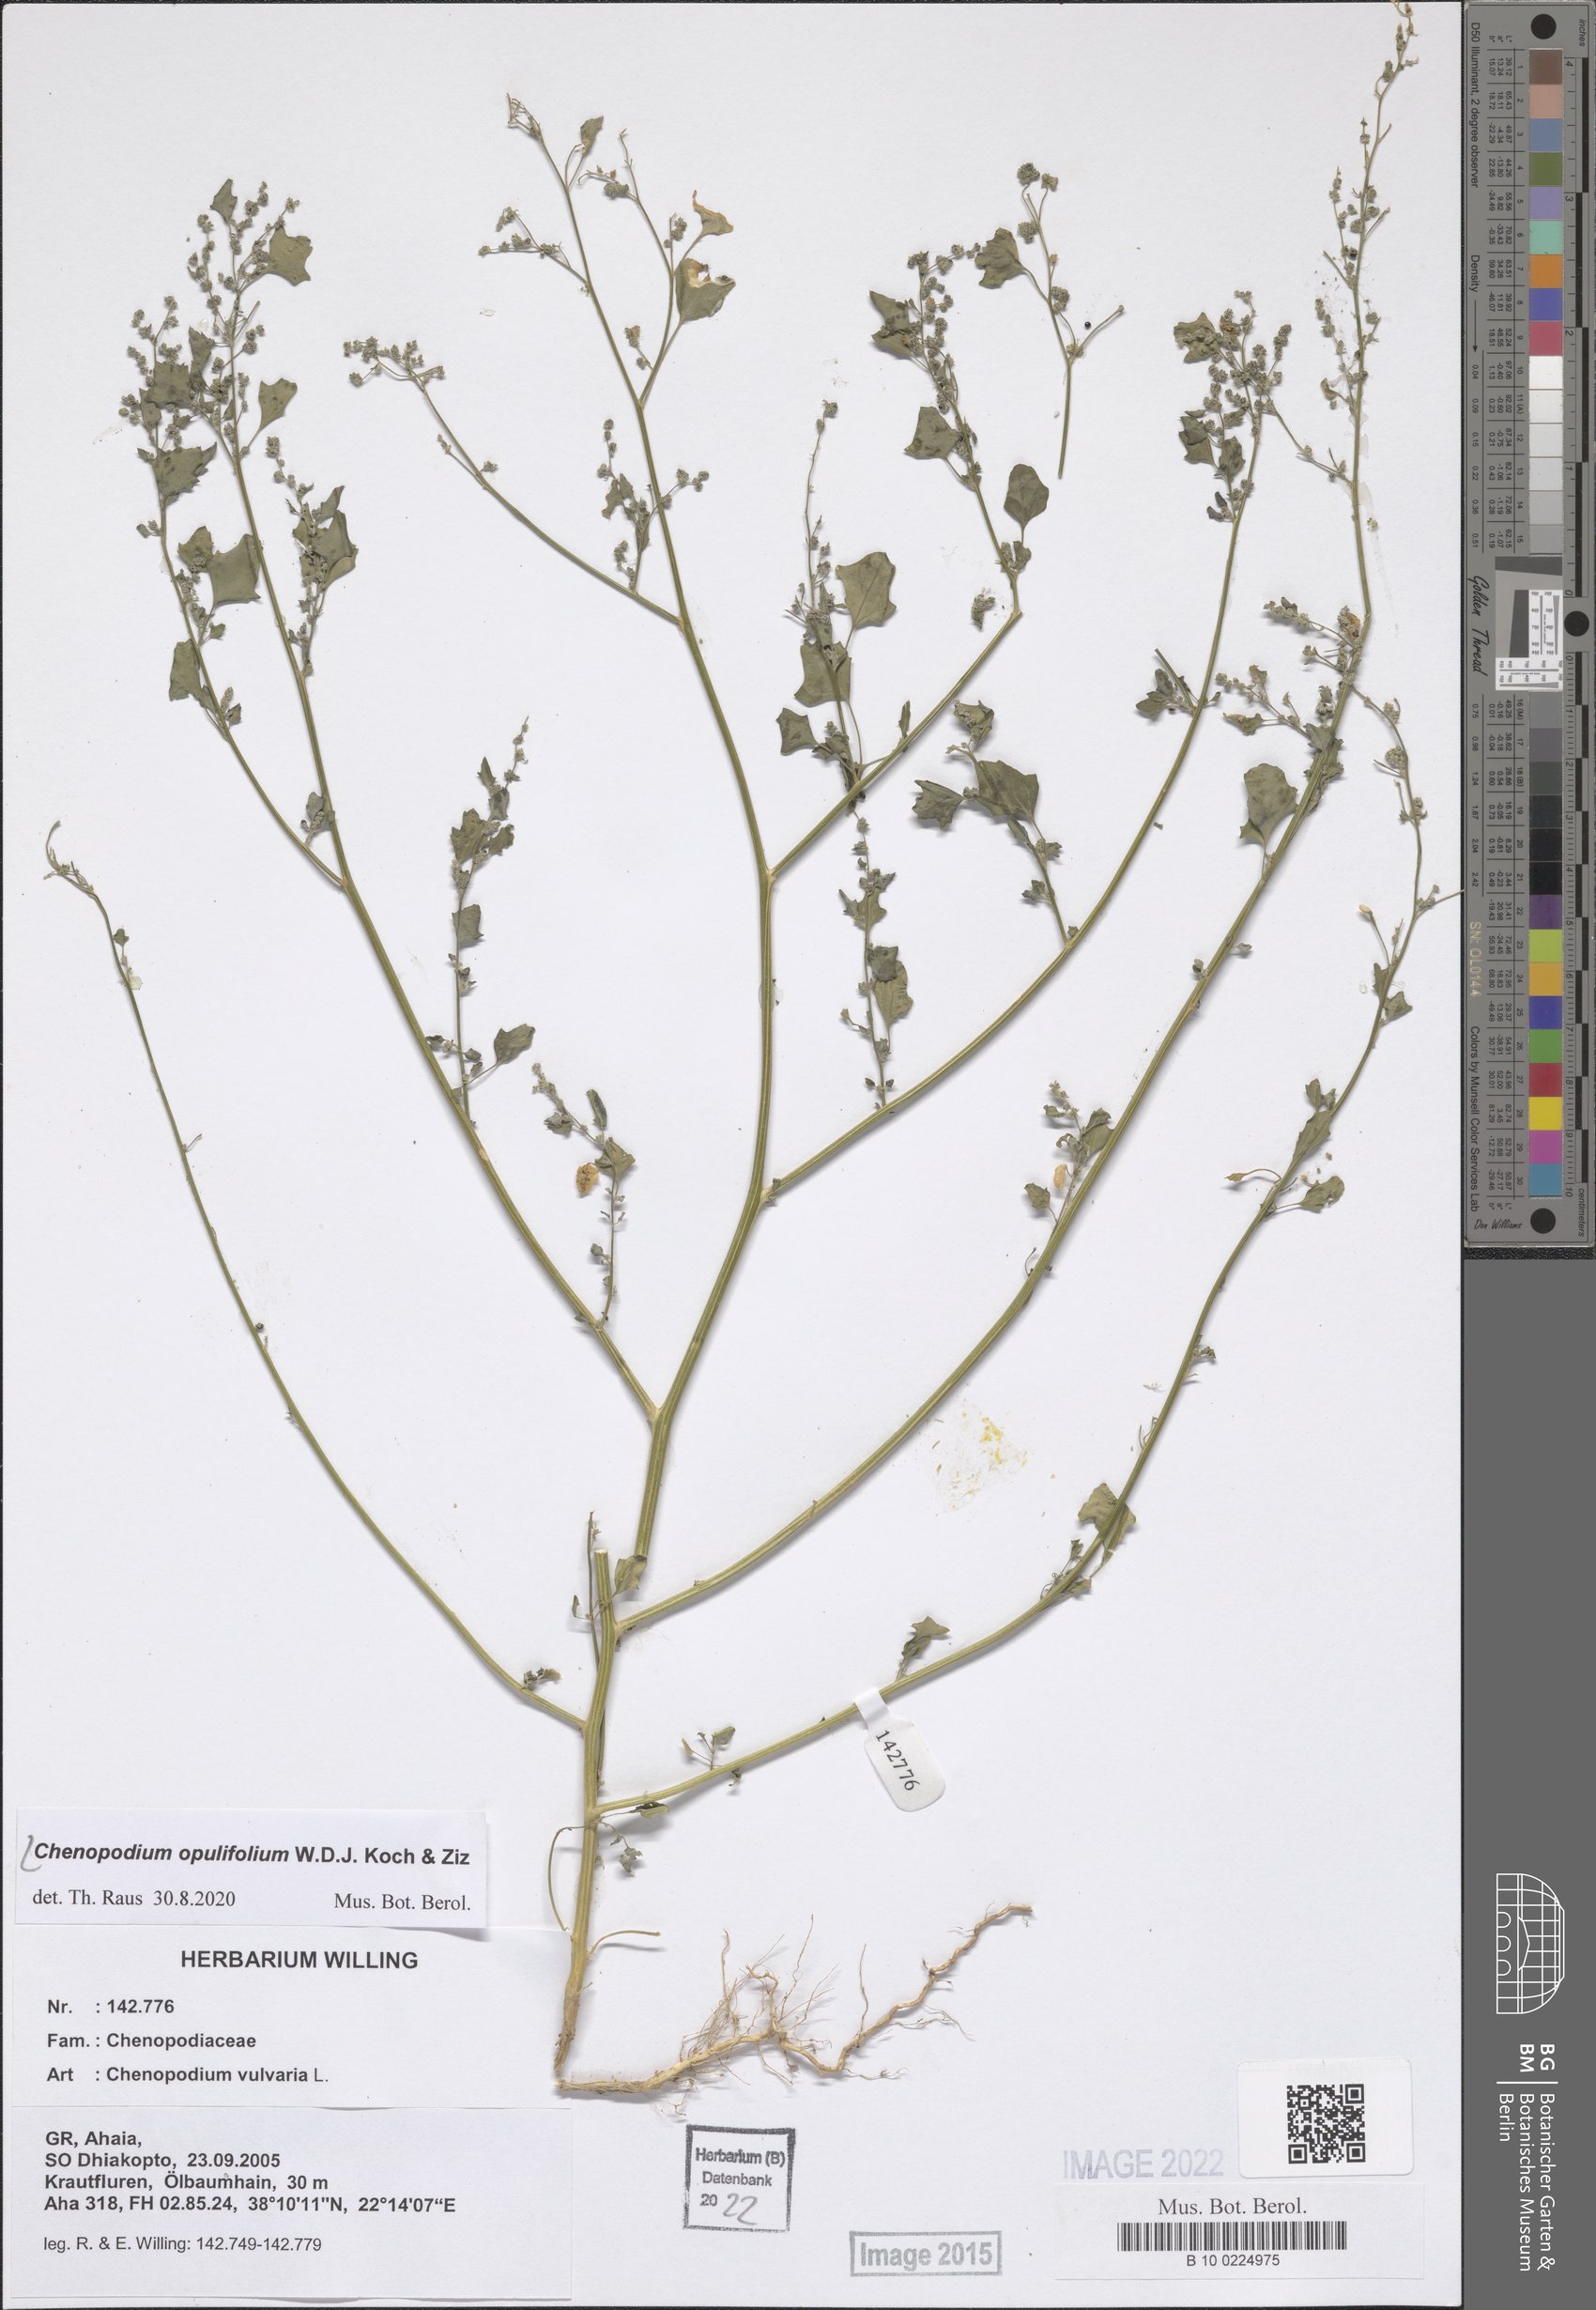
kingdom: Plantae
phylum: Tracheophyta
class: Magnoliopsida
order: Caryophyllales
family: Amaranthaceae
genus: Chenopodium
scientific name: Chenopodium opulifolium
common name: Grey goosefoot
